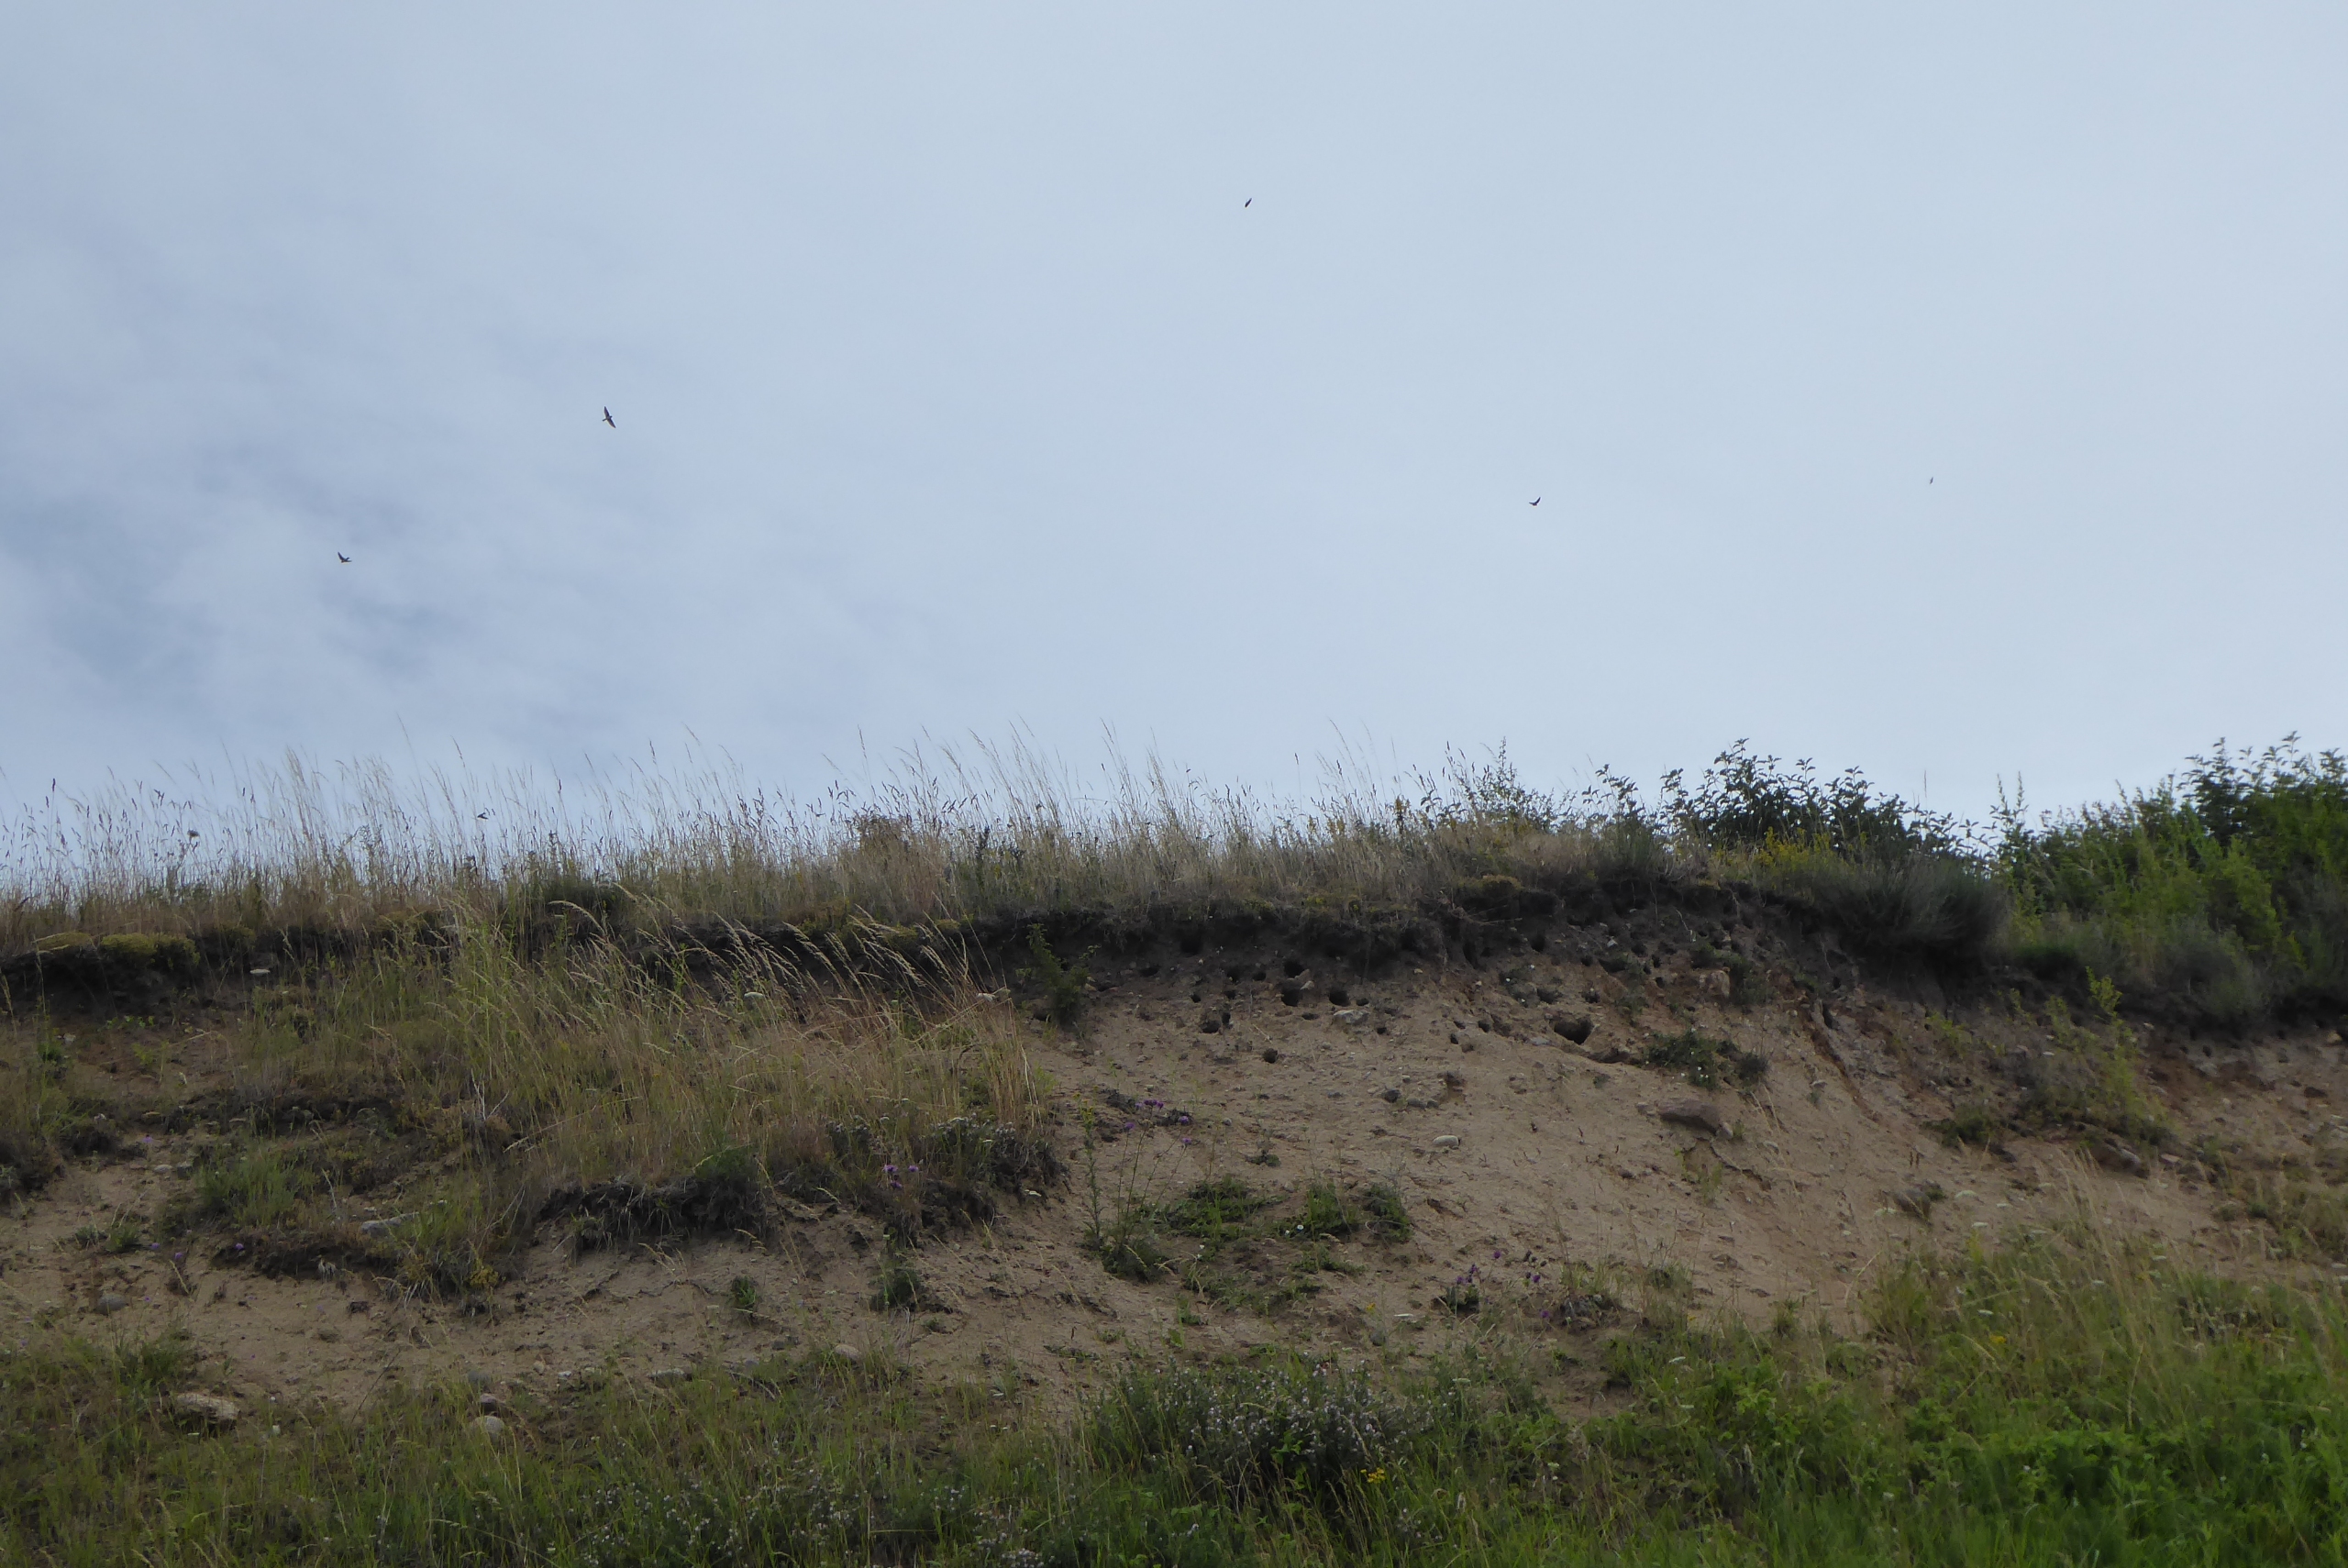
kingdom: Animalia
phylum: Chordata
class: Aves
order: Passeriformes
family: Hirundinidae
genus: Riparia
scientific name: Riparia riparia
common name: Digesvale
